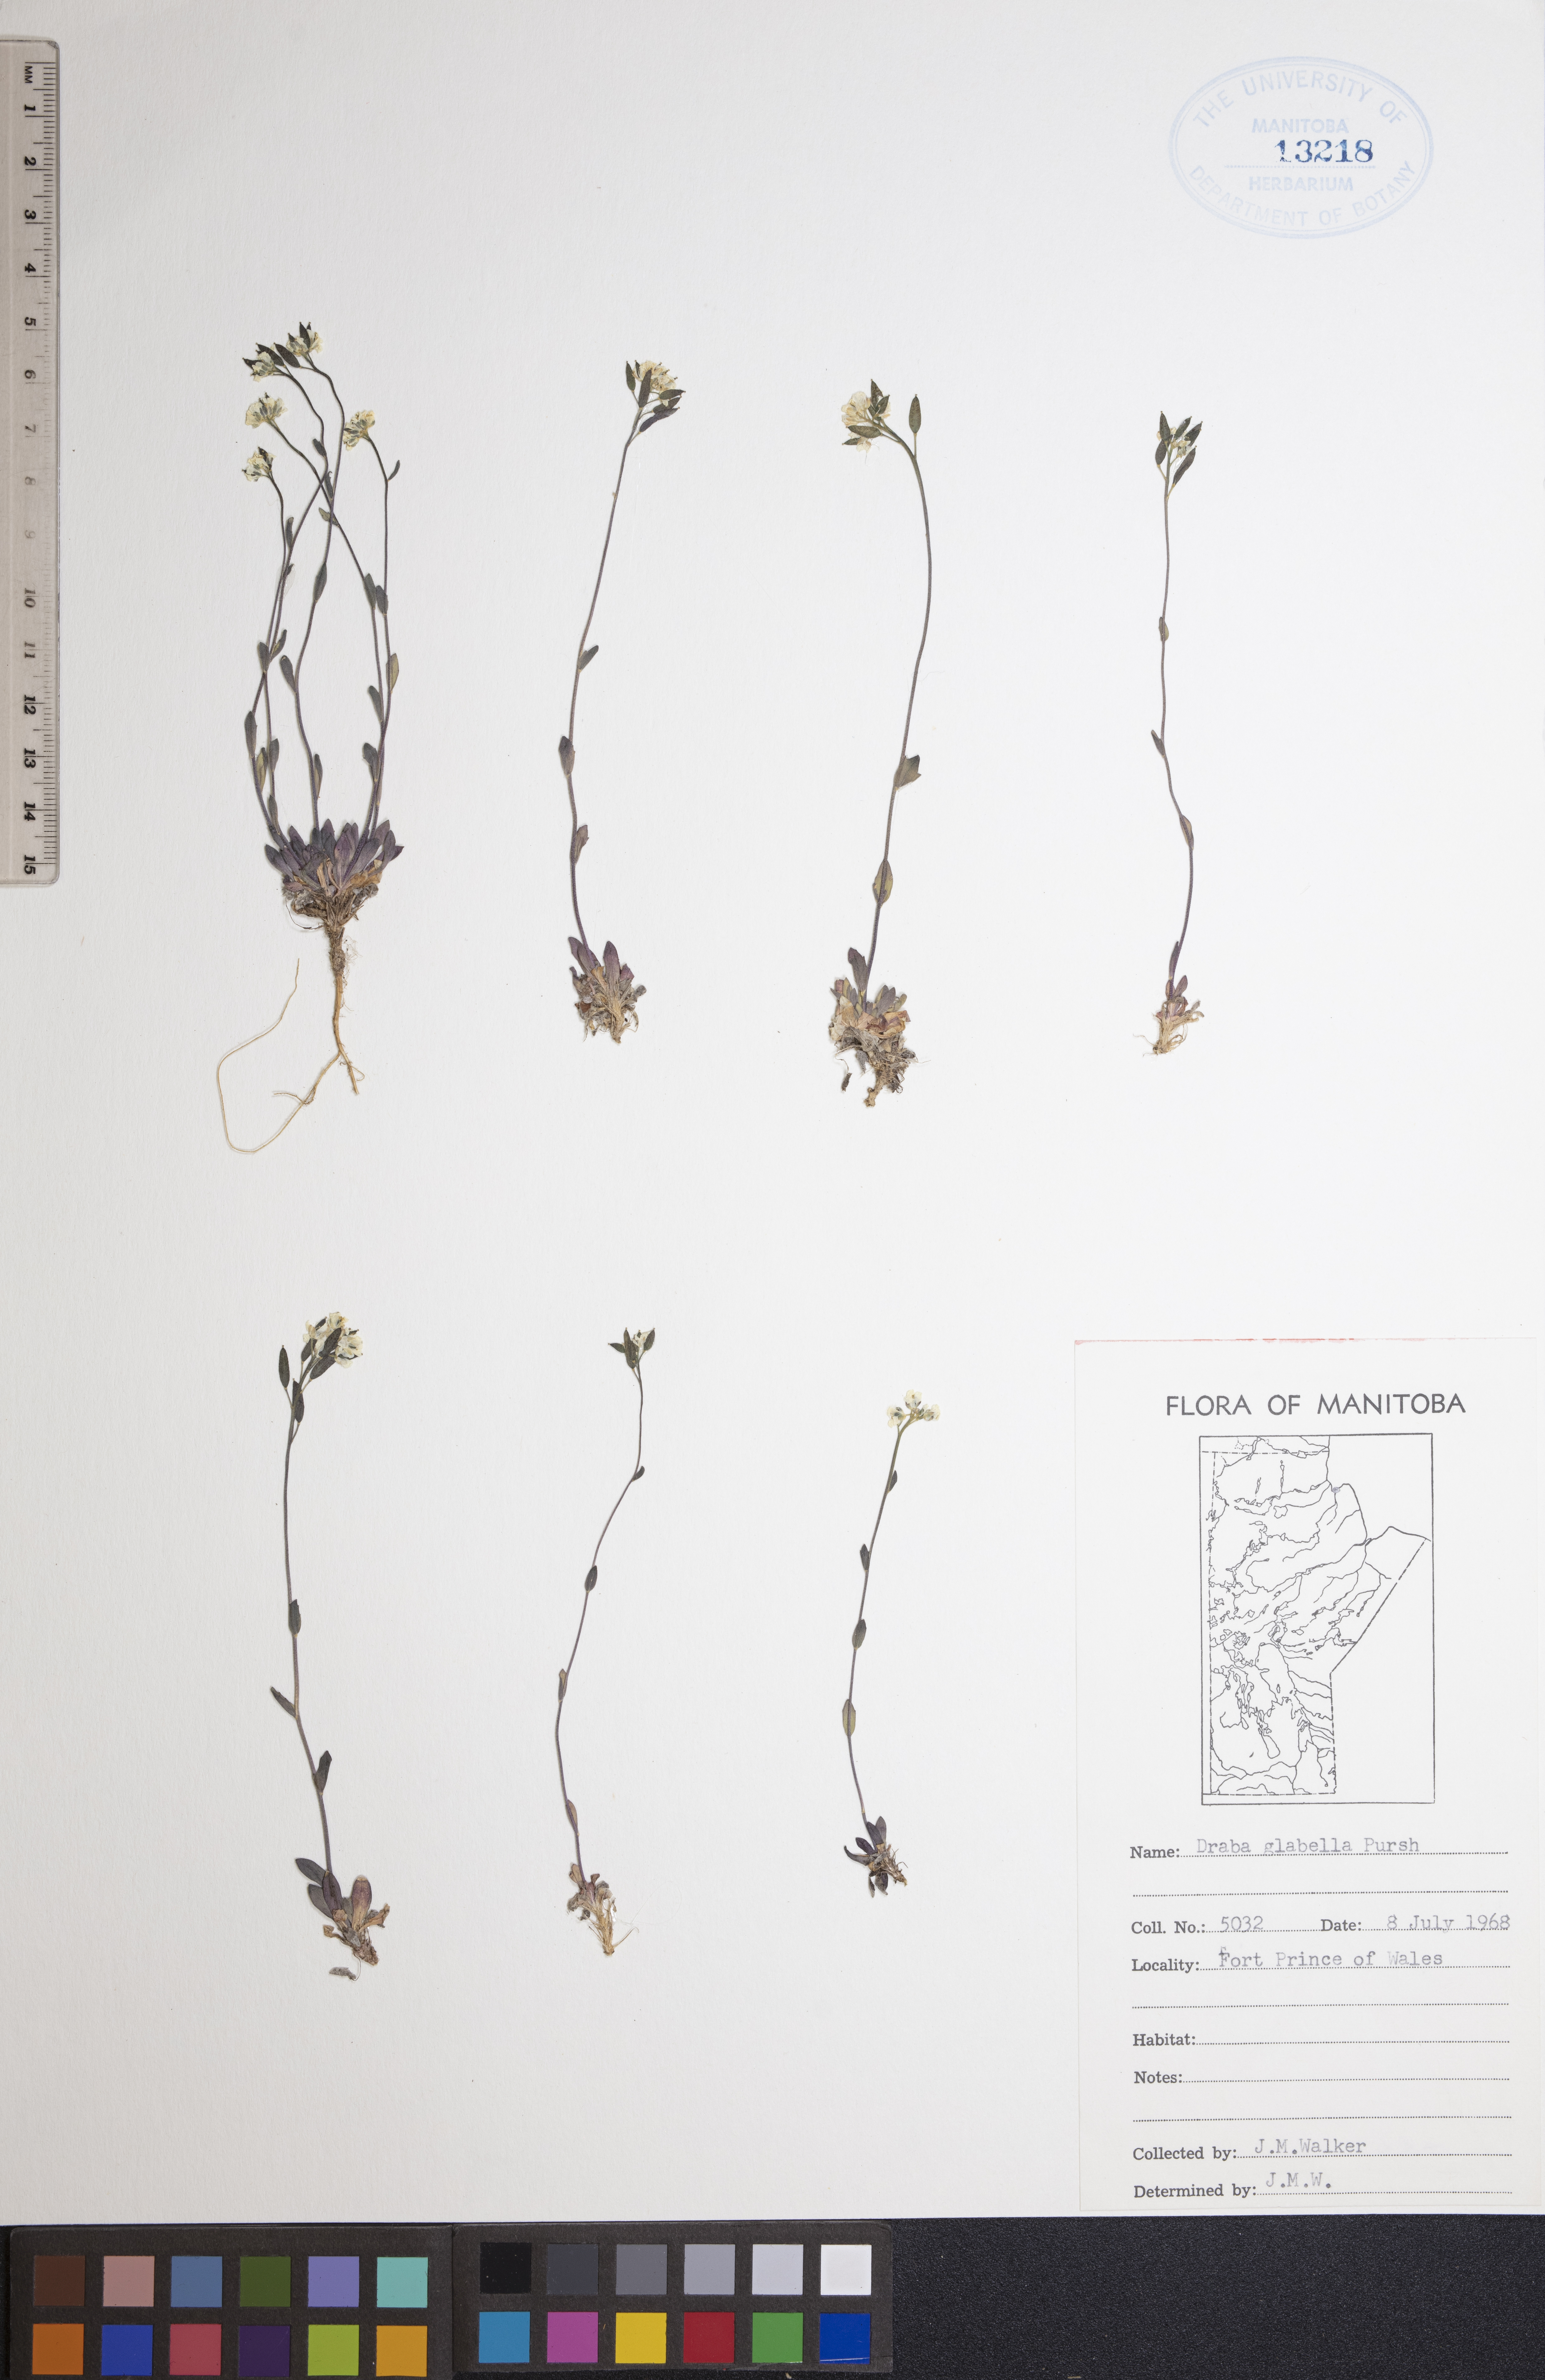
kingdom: Plantae
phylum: Tracheophyta
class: Magnoliopsida
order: Brassicales
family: Brassicaceae
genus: Draba
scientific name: Draba glabella
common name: Glaucous draba
